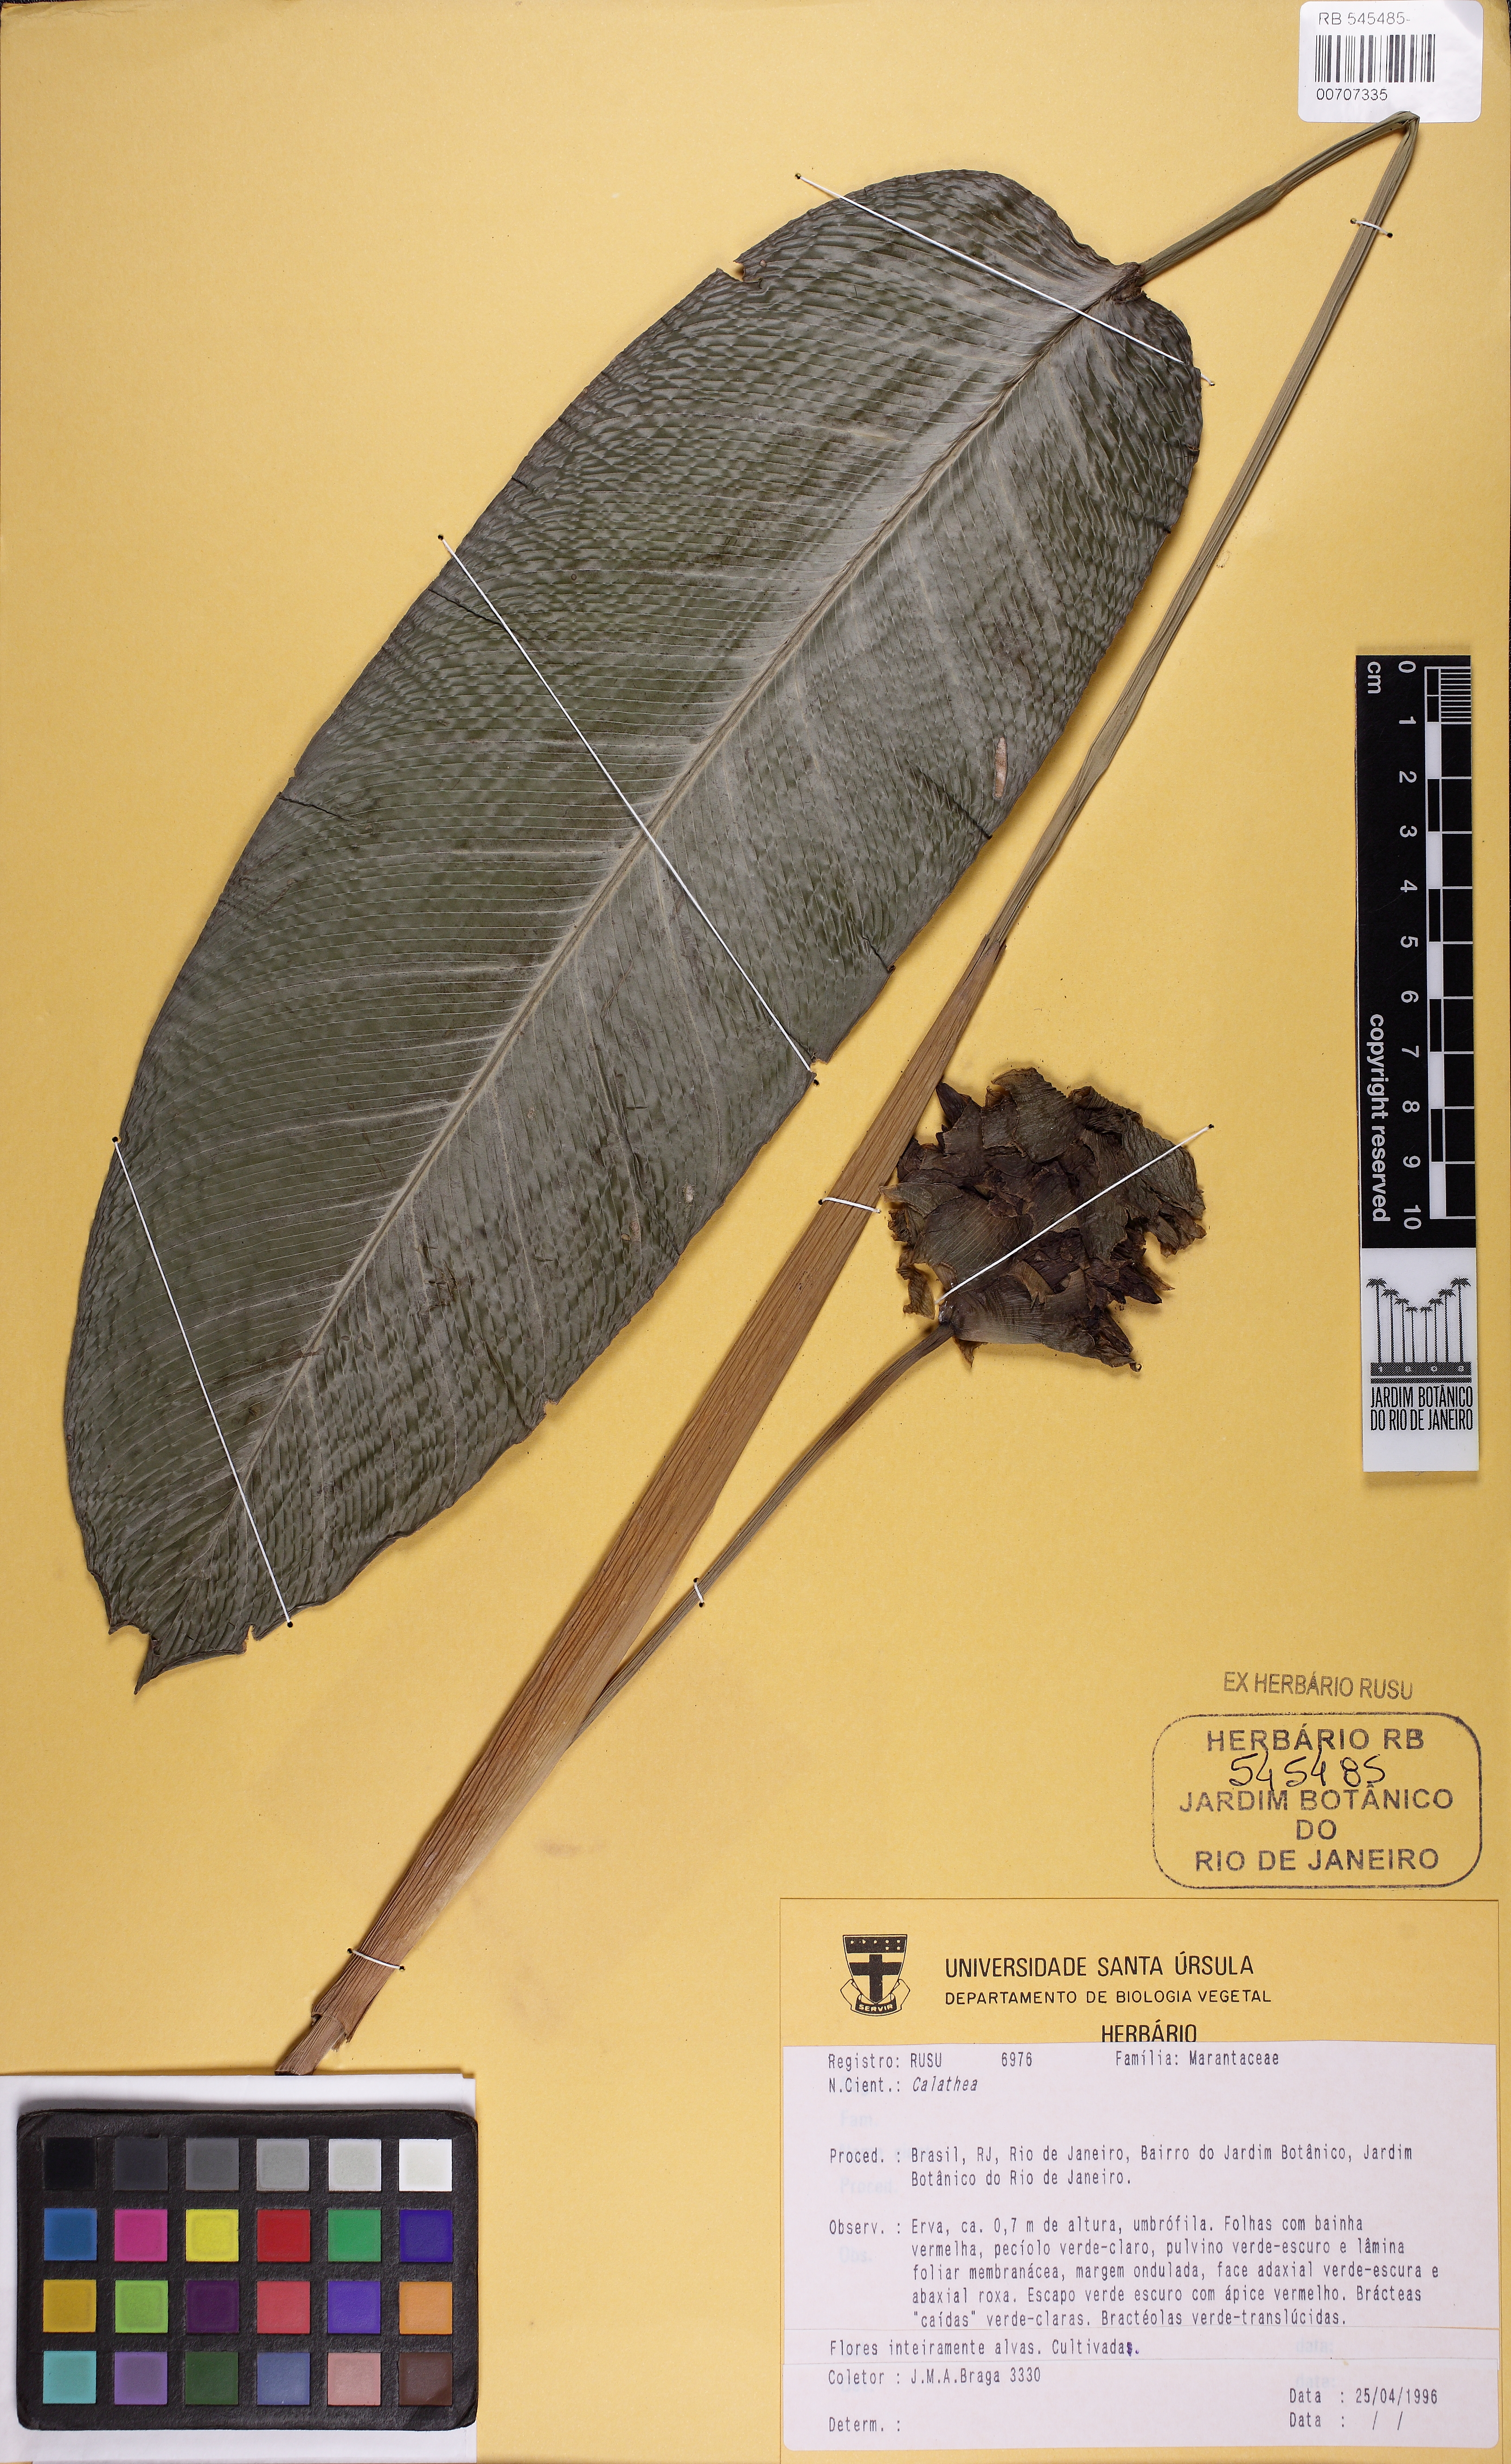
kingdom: Plantae
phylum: Tracheophyta
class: Liliopsida
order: Zingiberales
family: Marantaceae
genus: Calathea
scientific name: Calathea
